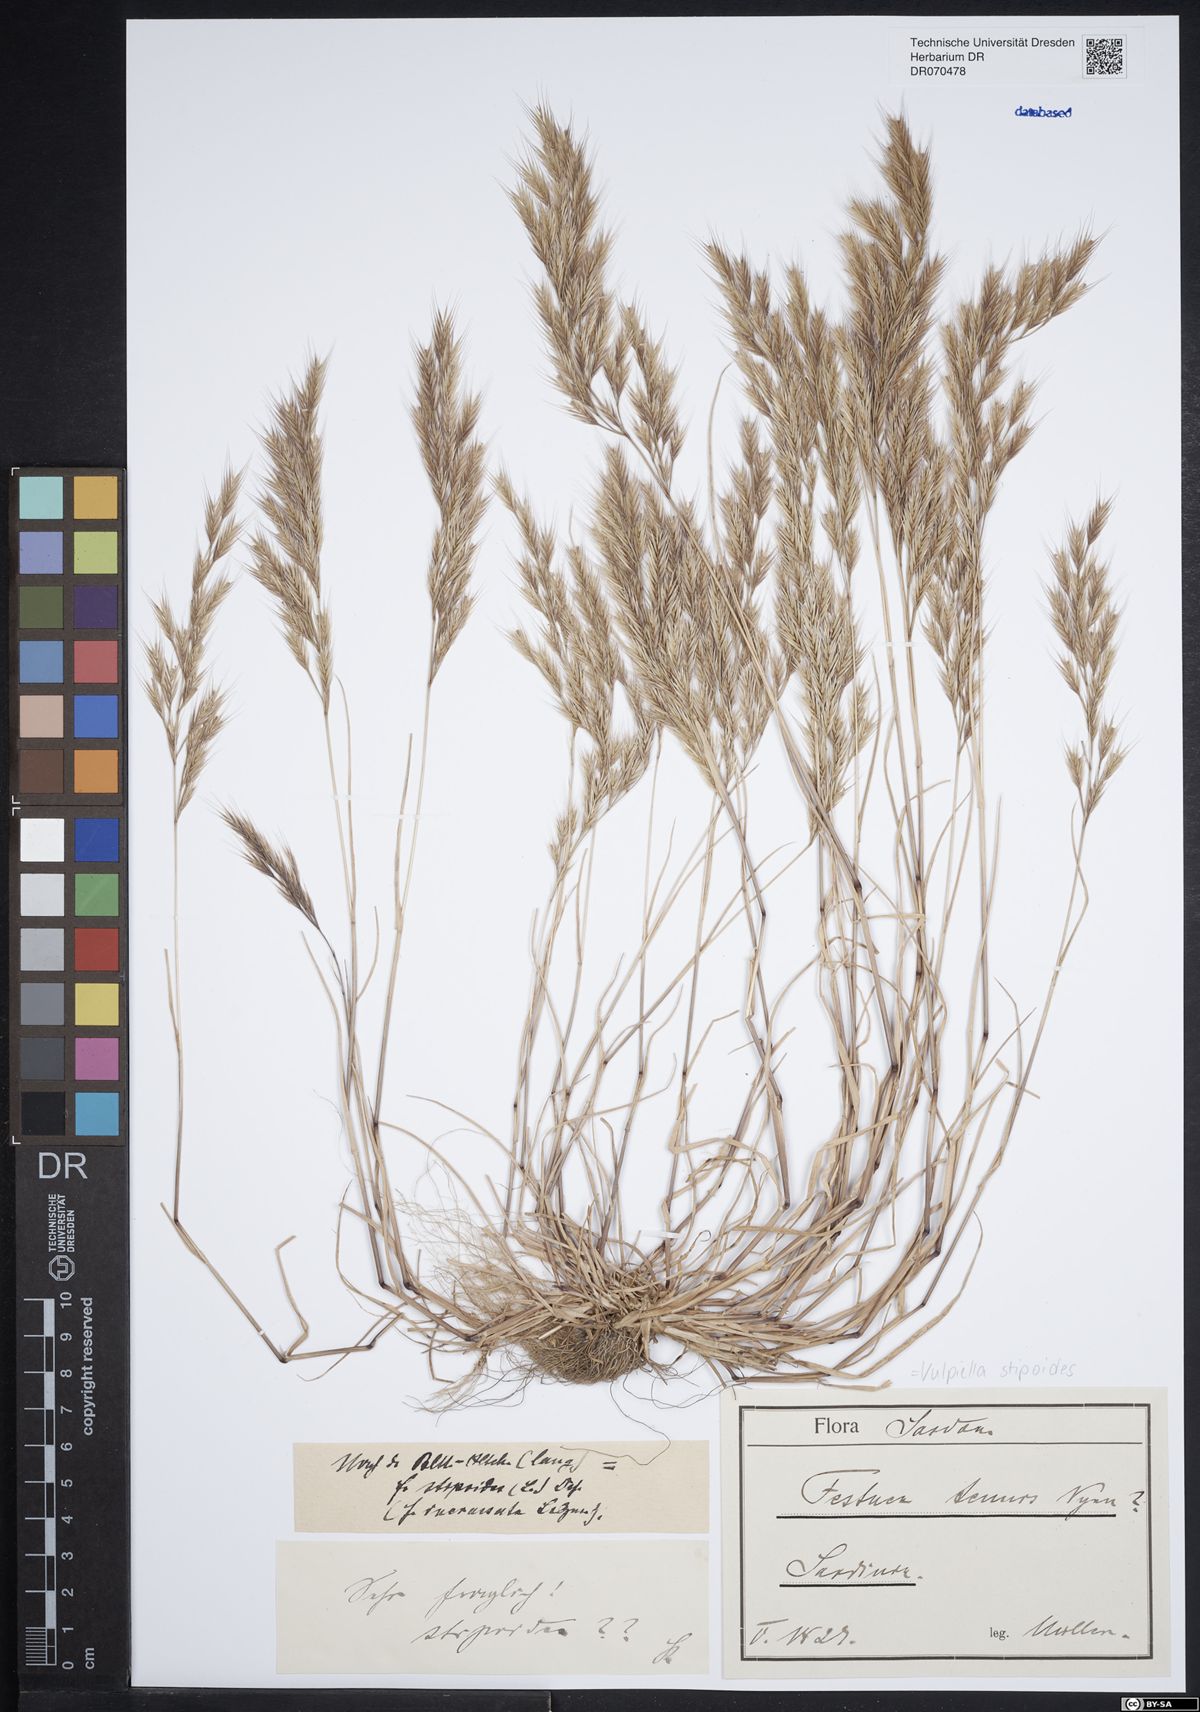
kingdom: Plantae
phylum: Tracheophyta
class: Liliopsida
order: Poales
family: Poaceae
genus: Vulpiella
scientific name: Vulpiella stipoides
